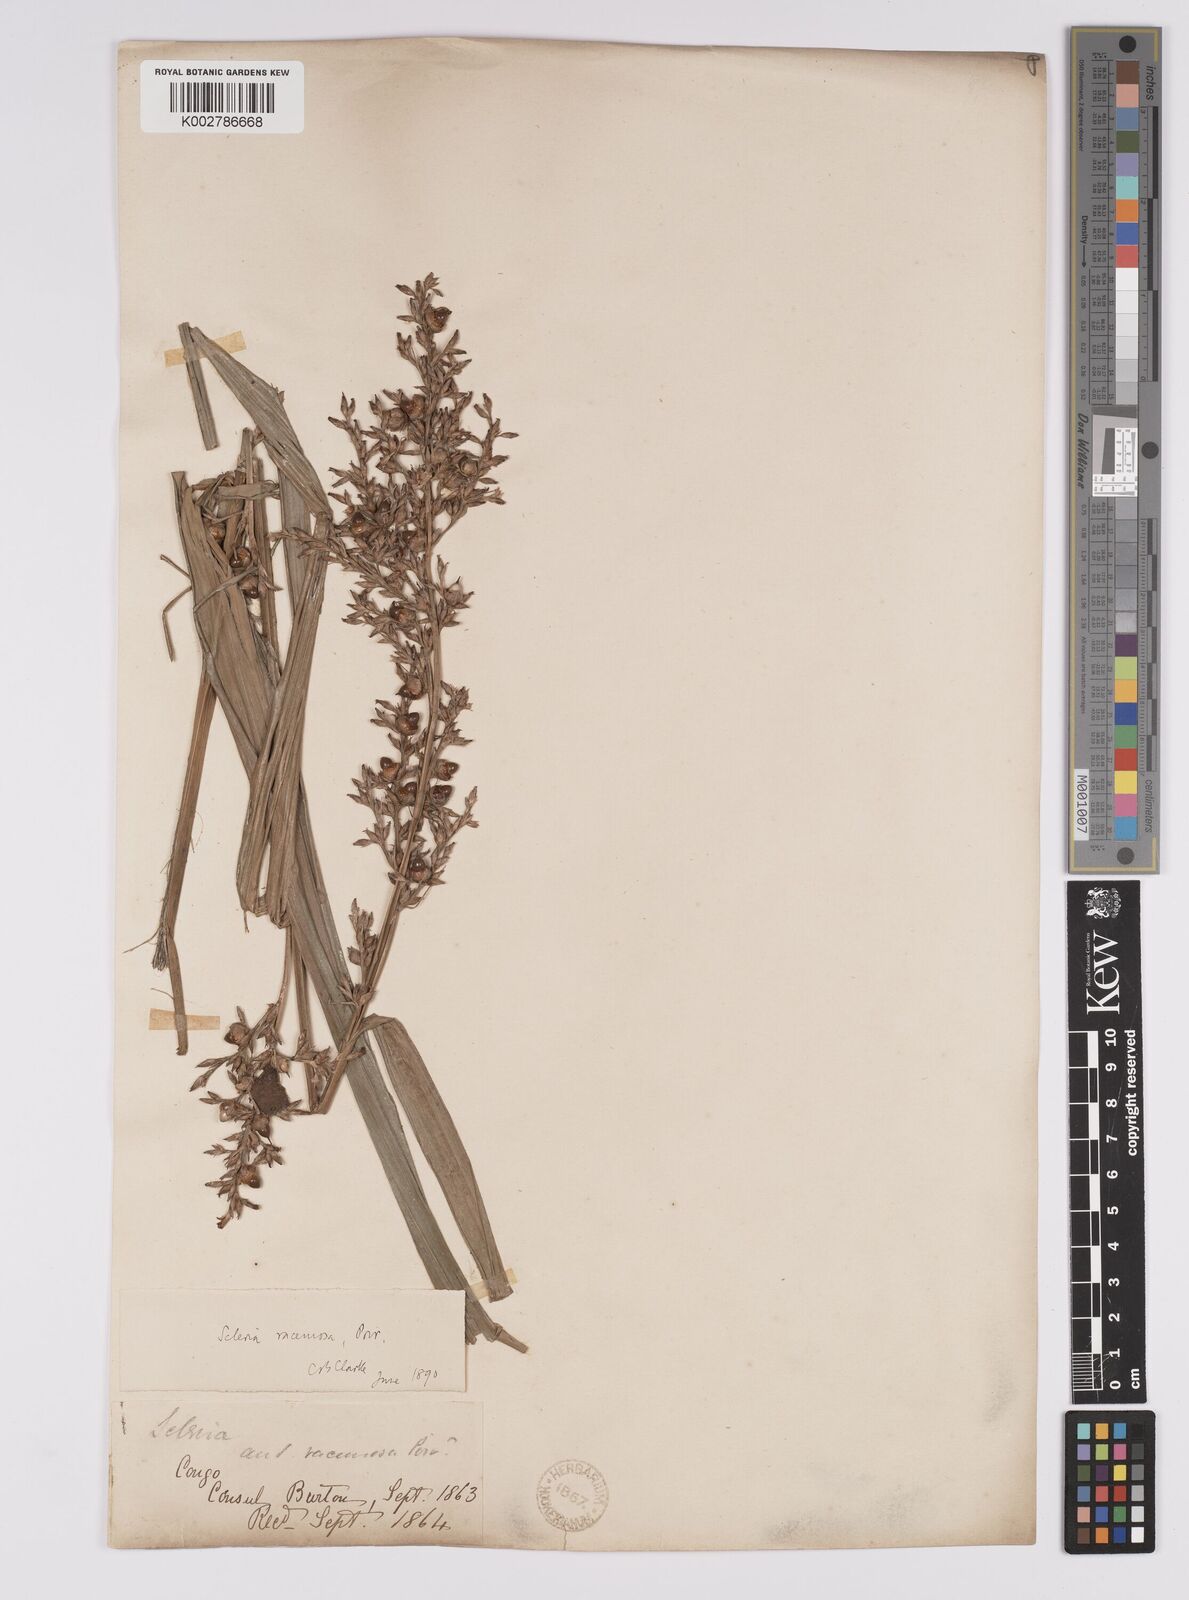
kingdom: Plantae
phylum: Tracheophyta
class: Liliopsida
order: Poales
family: Cyperaceae
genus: Scleria
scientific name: Scleria racemosa
